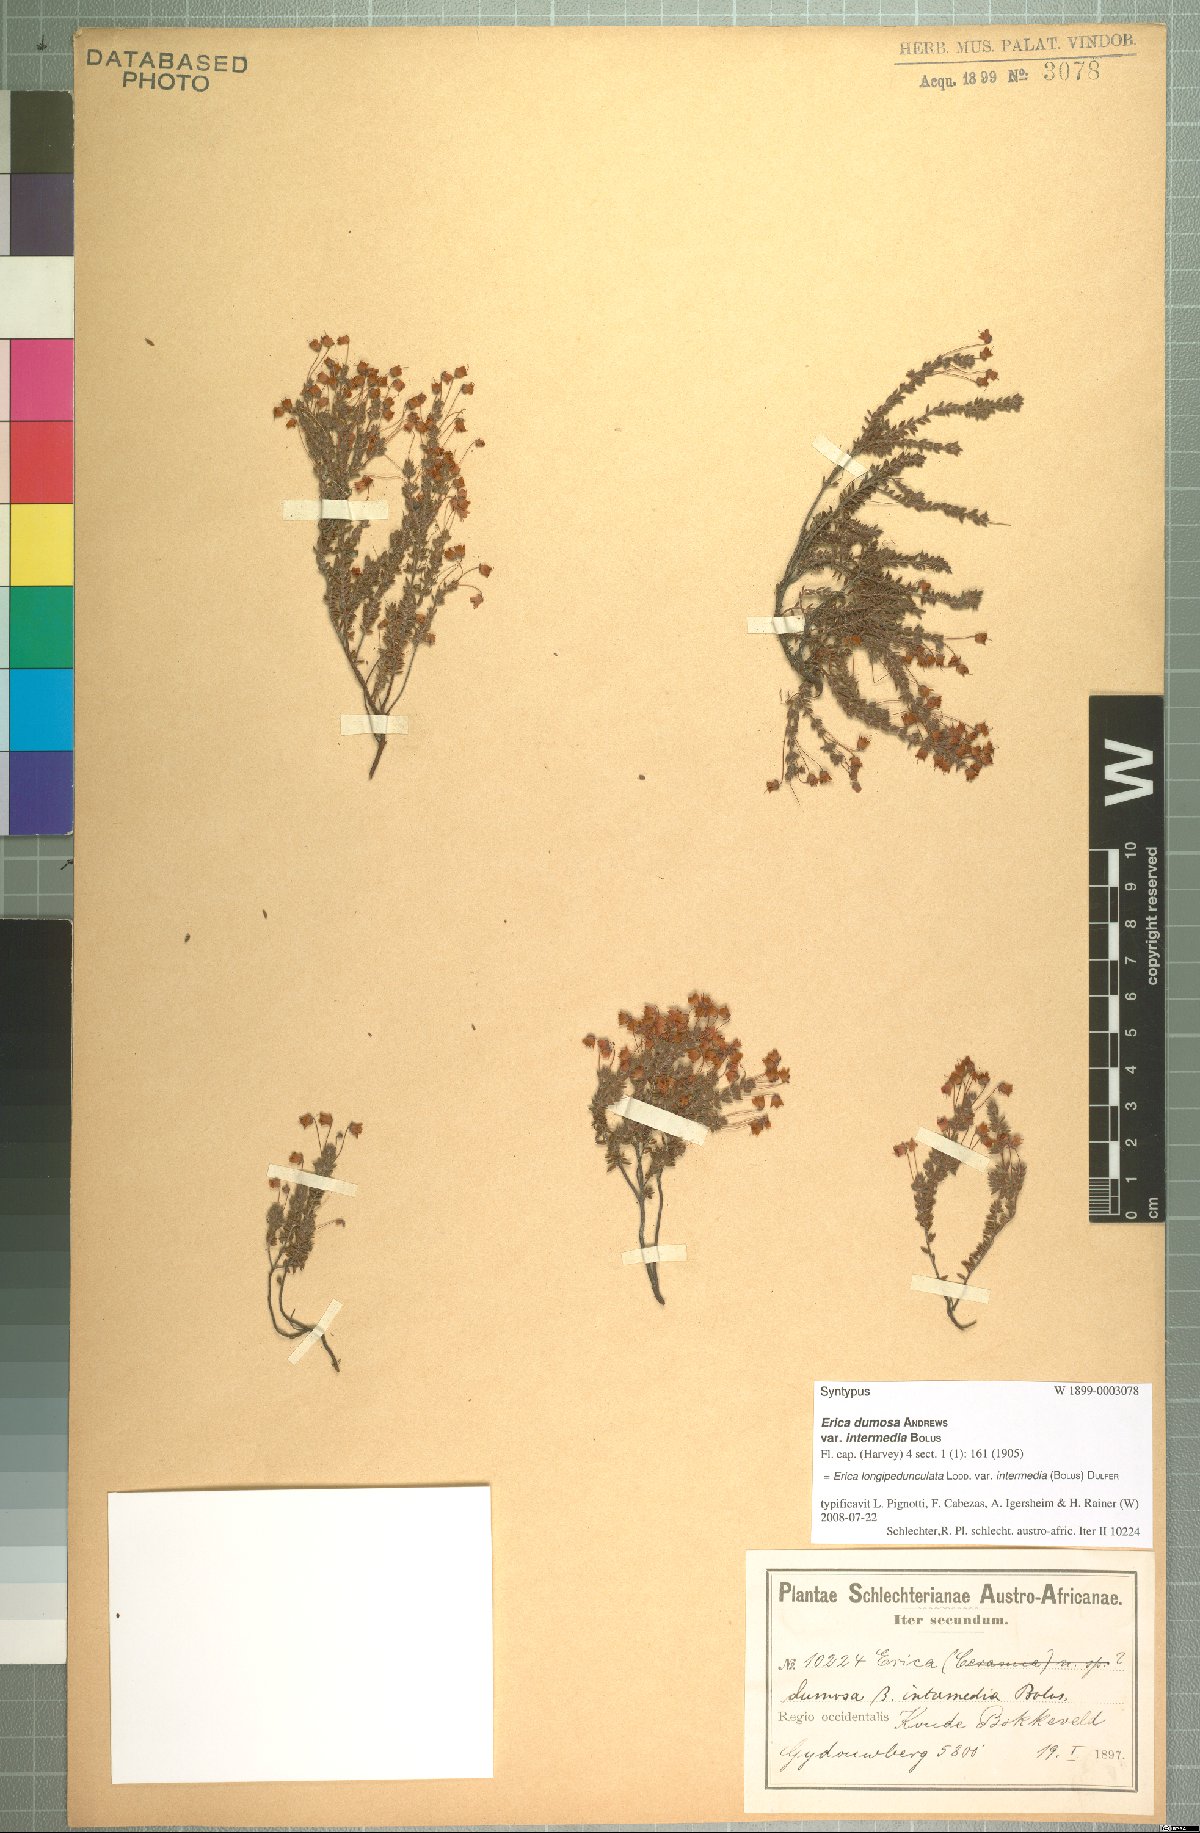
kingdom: Plantae
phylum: Tracheophyta
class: Magnoliopsida
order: Ericales
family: Ericaceae
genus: Erica
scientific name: Erica longipedunculata
